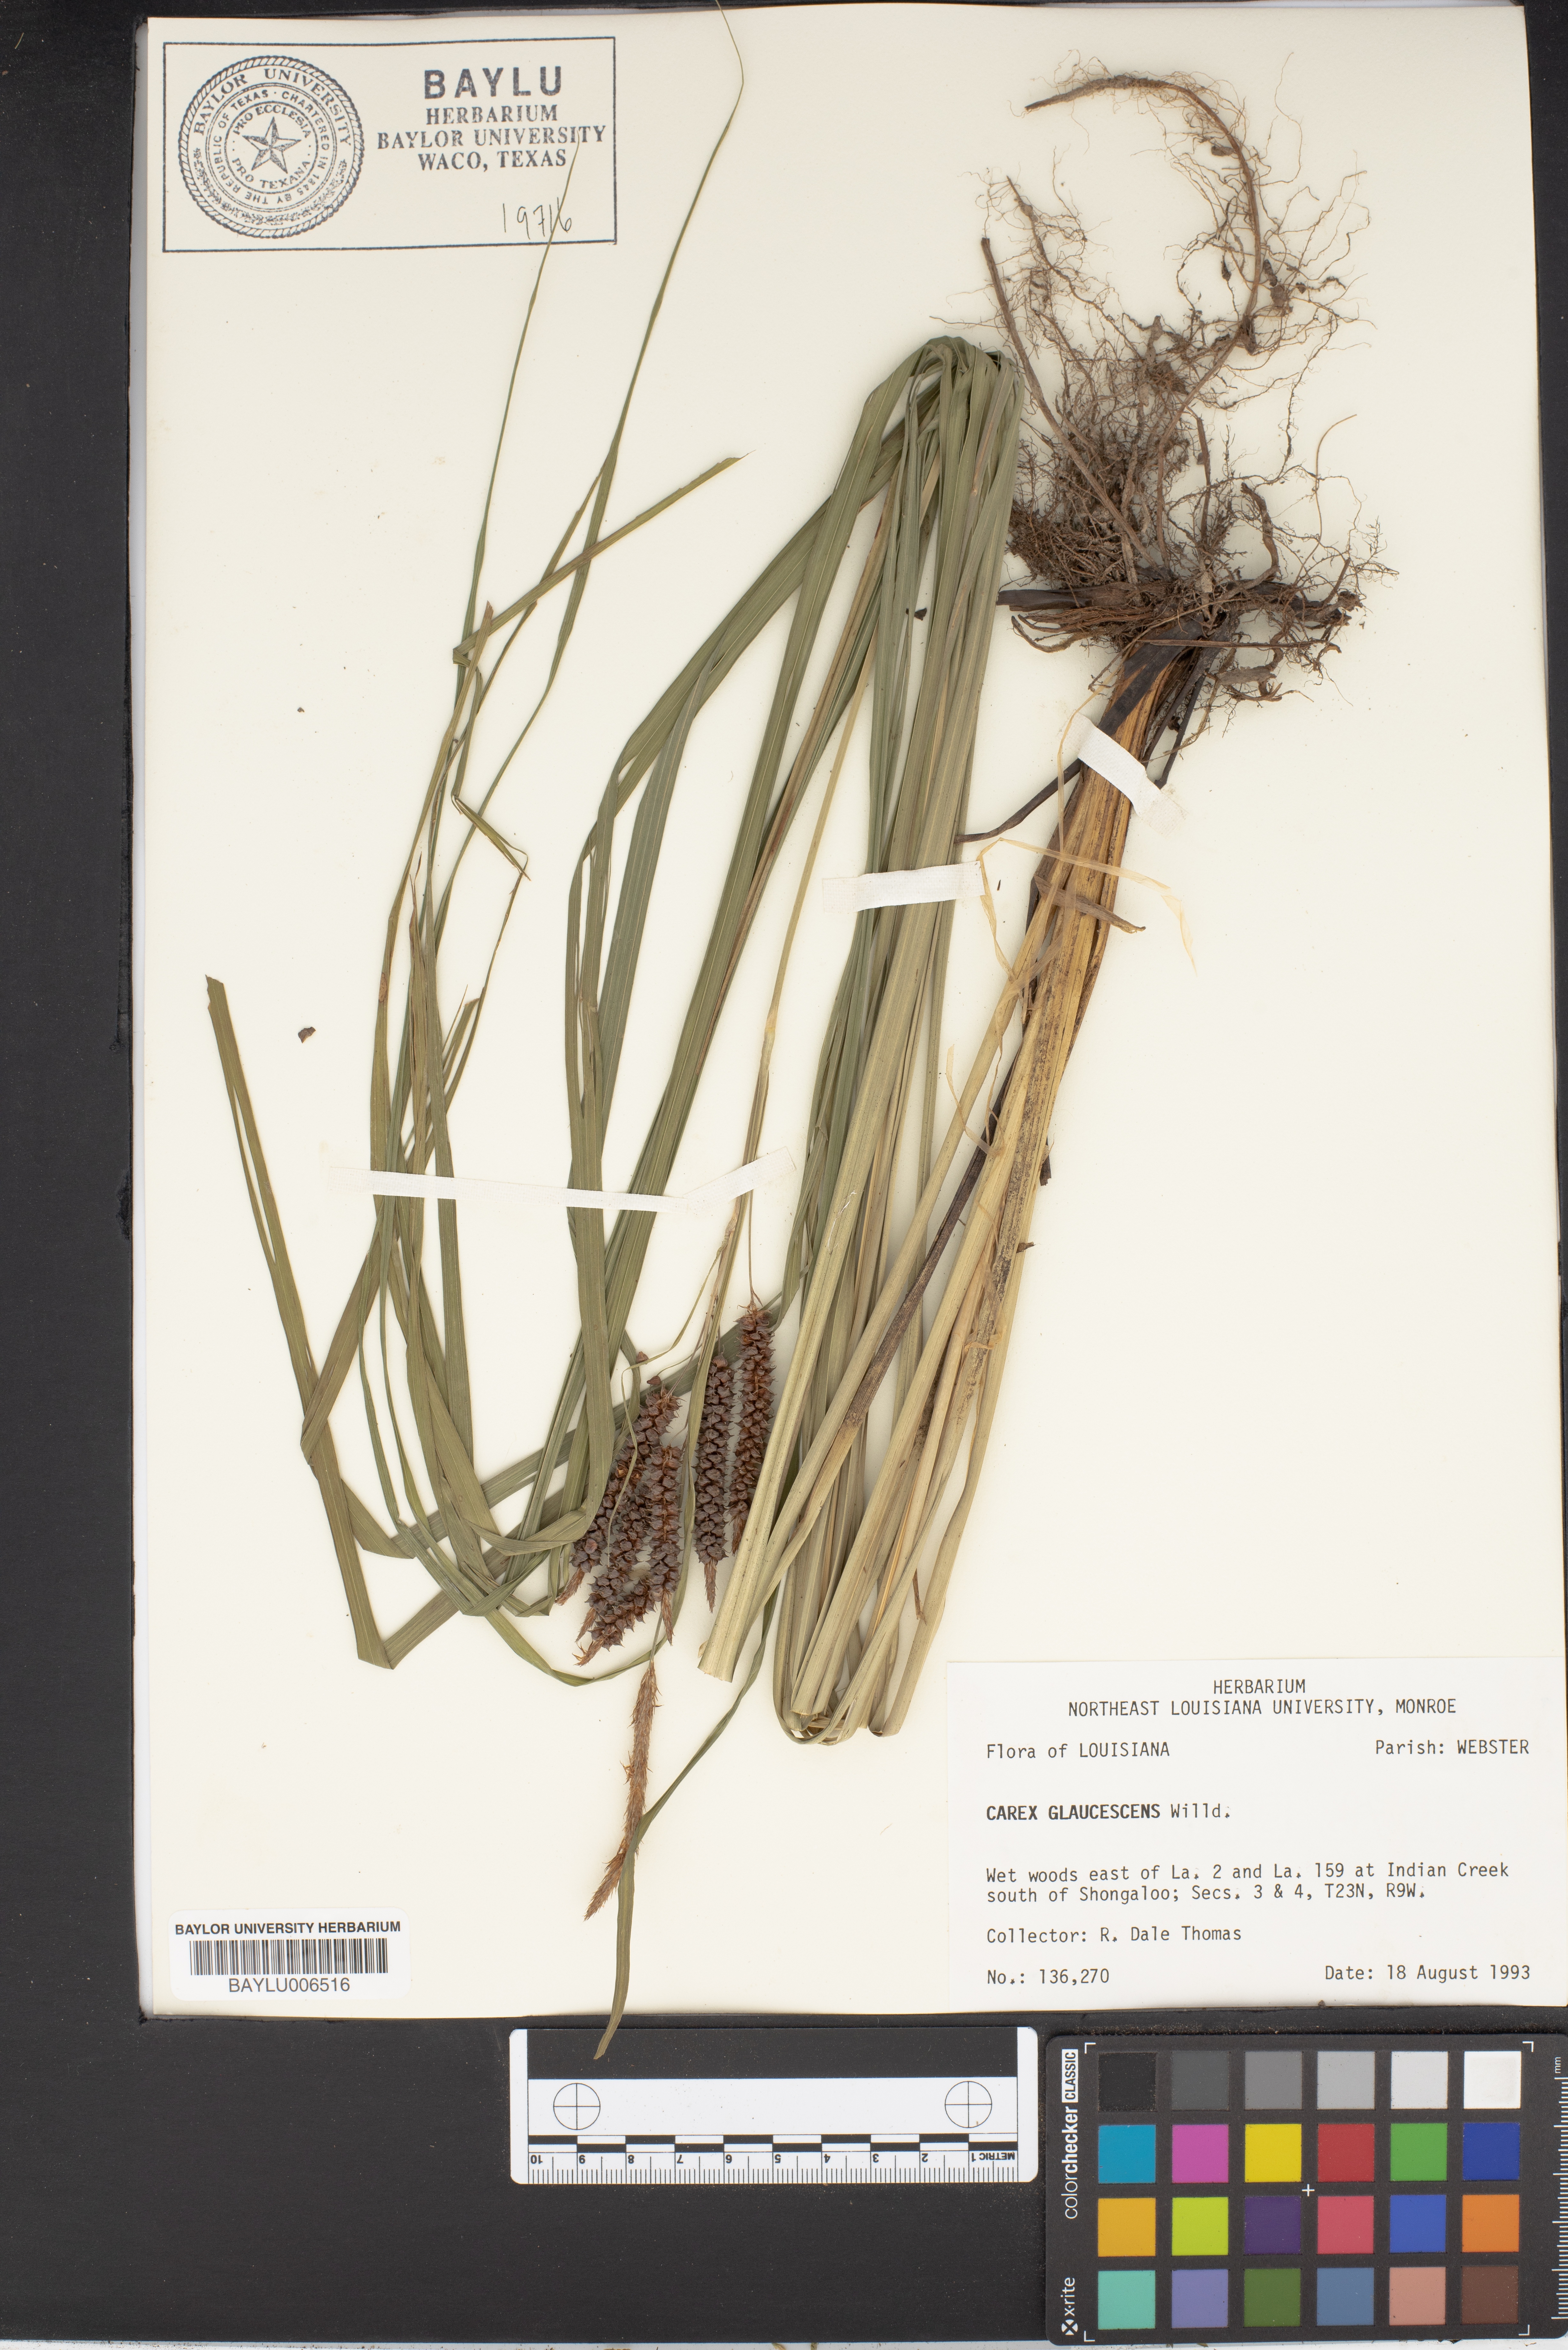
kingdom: Plantae
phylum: Tracheophyta
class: Liliopsida
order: Poales
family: Cyperaceae
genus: Carex
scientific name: Carex glaucescens
